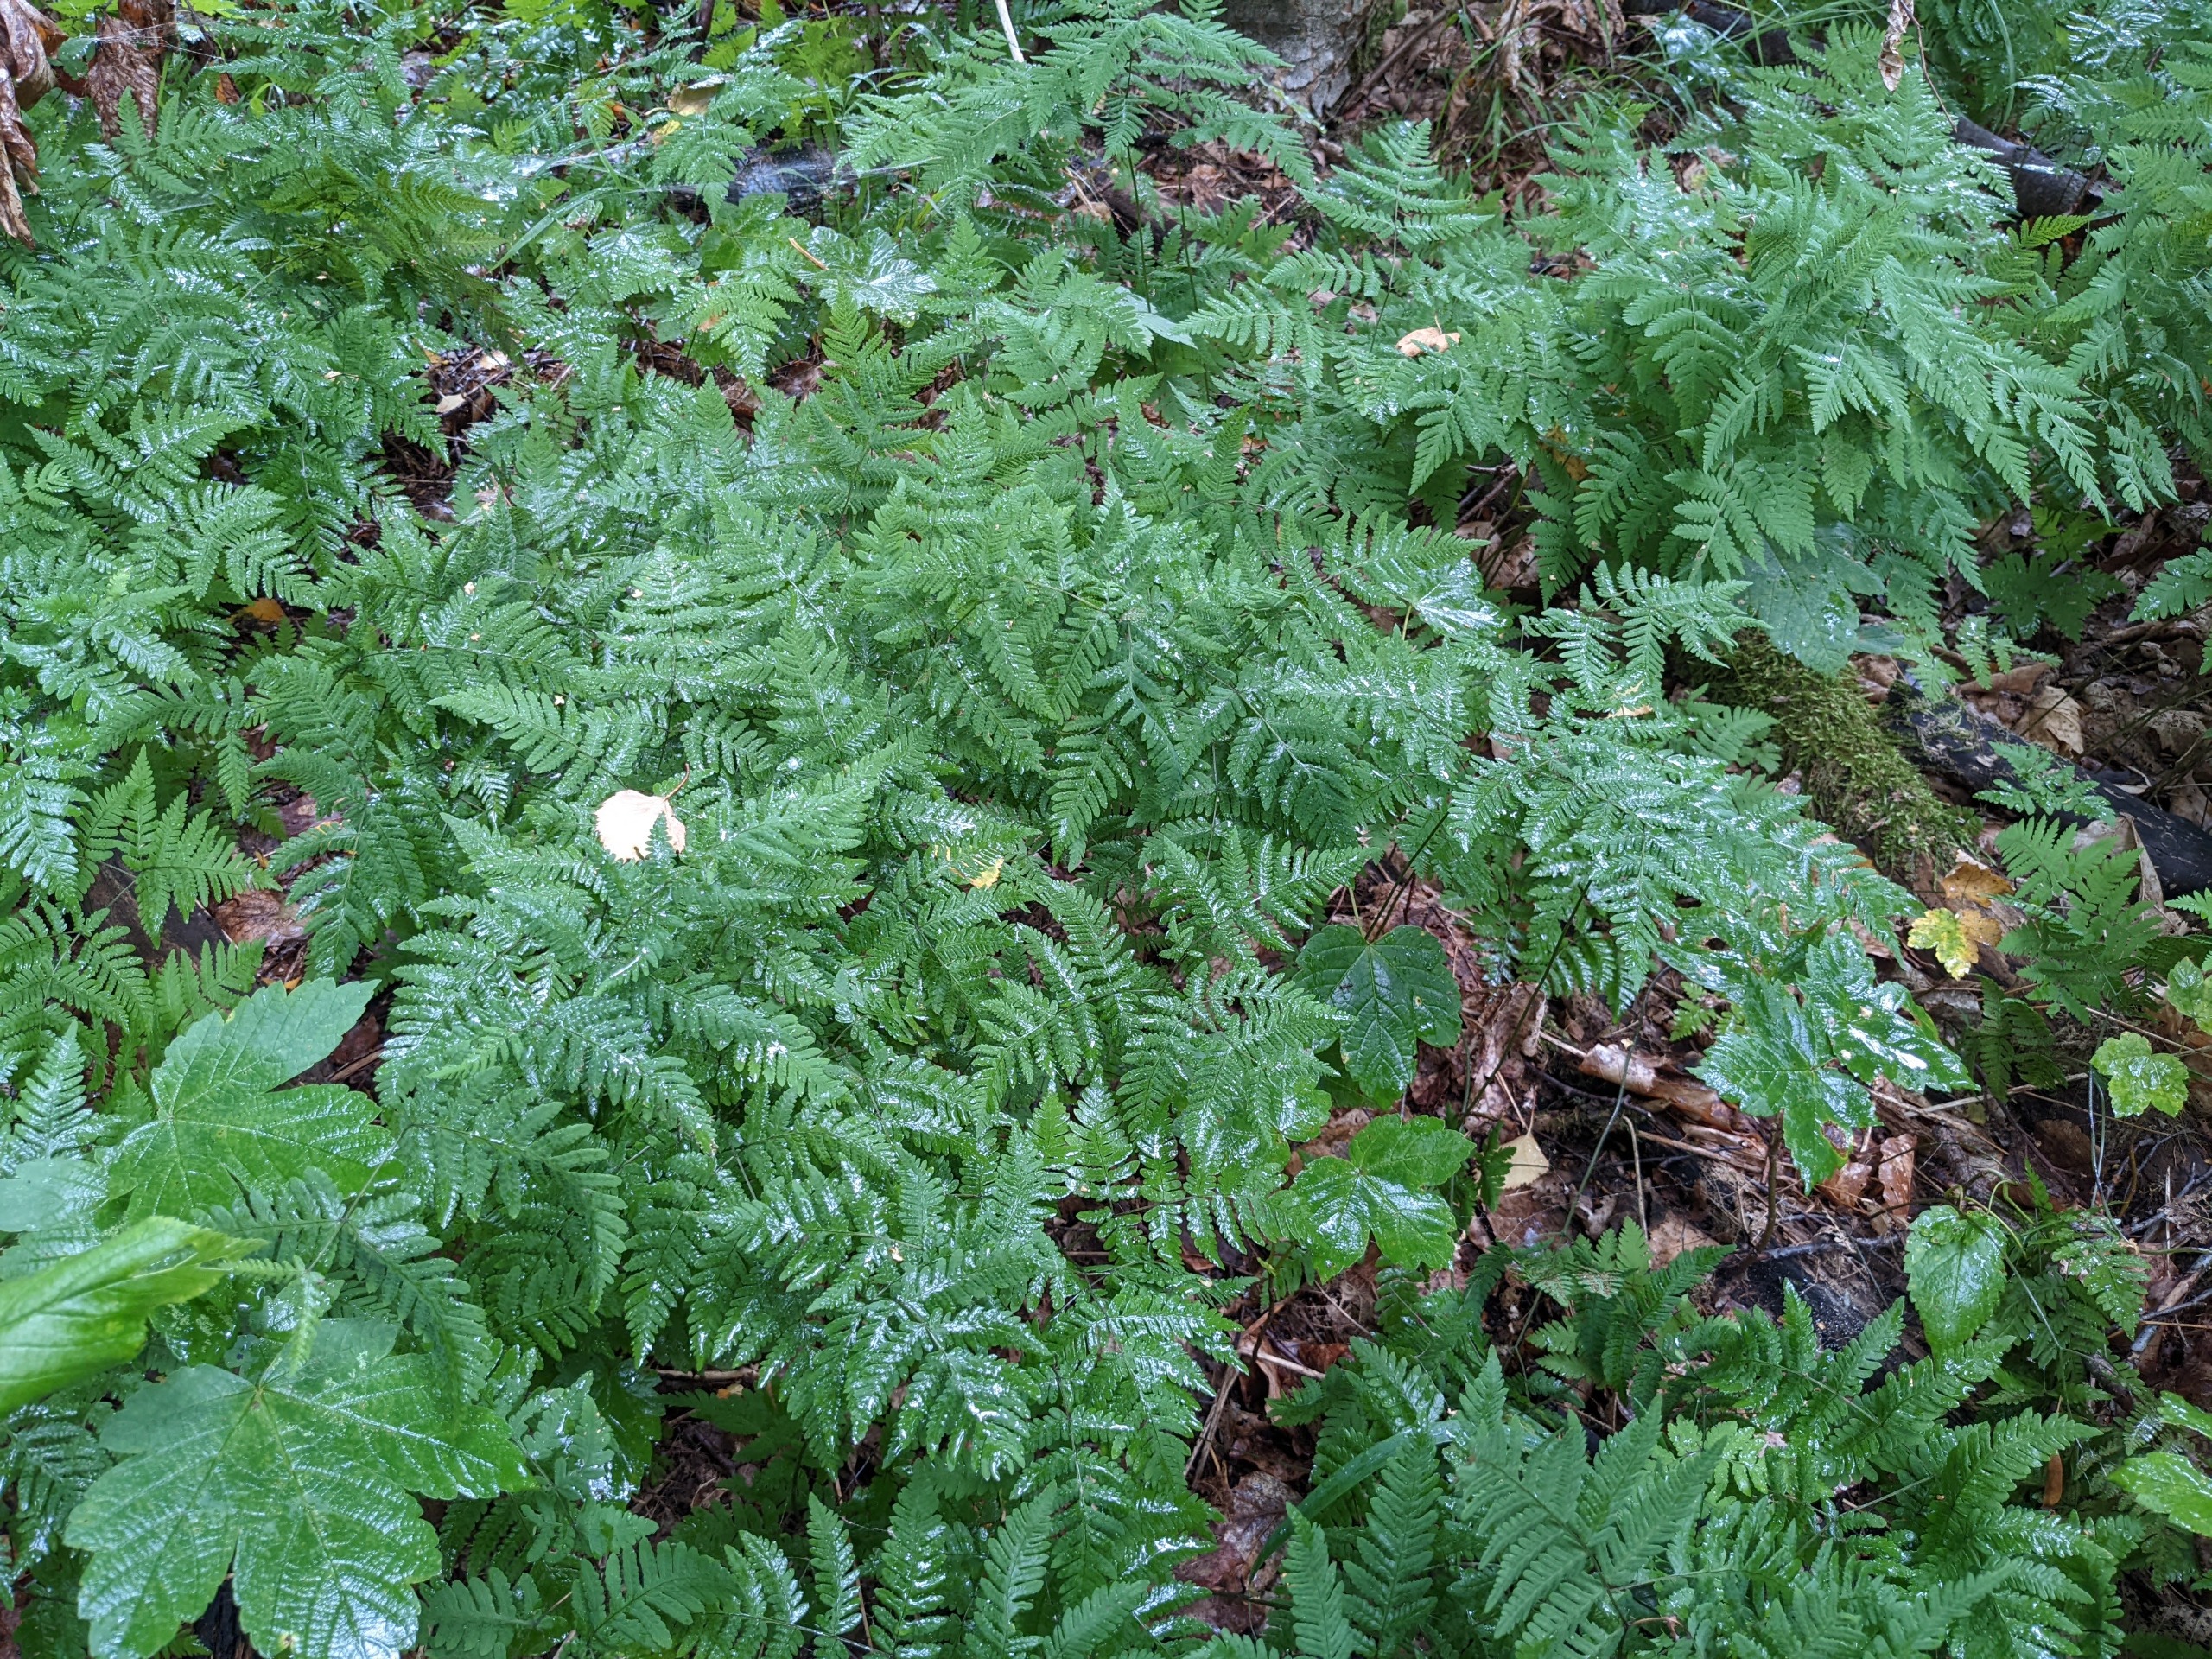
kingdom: Plantae
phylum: Tracheophyta
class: Polypodiopsida
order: Polypodiales
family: Cystopteridaceae
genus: Gymnocarpium
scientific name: Gymnocarpium dryopteris
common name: Tredelt egebregne
